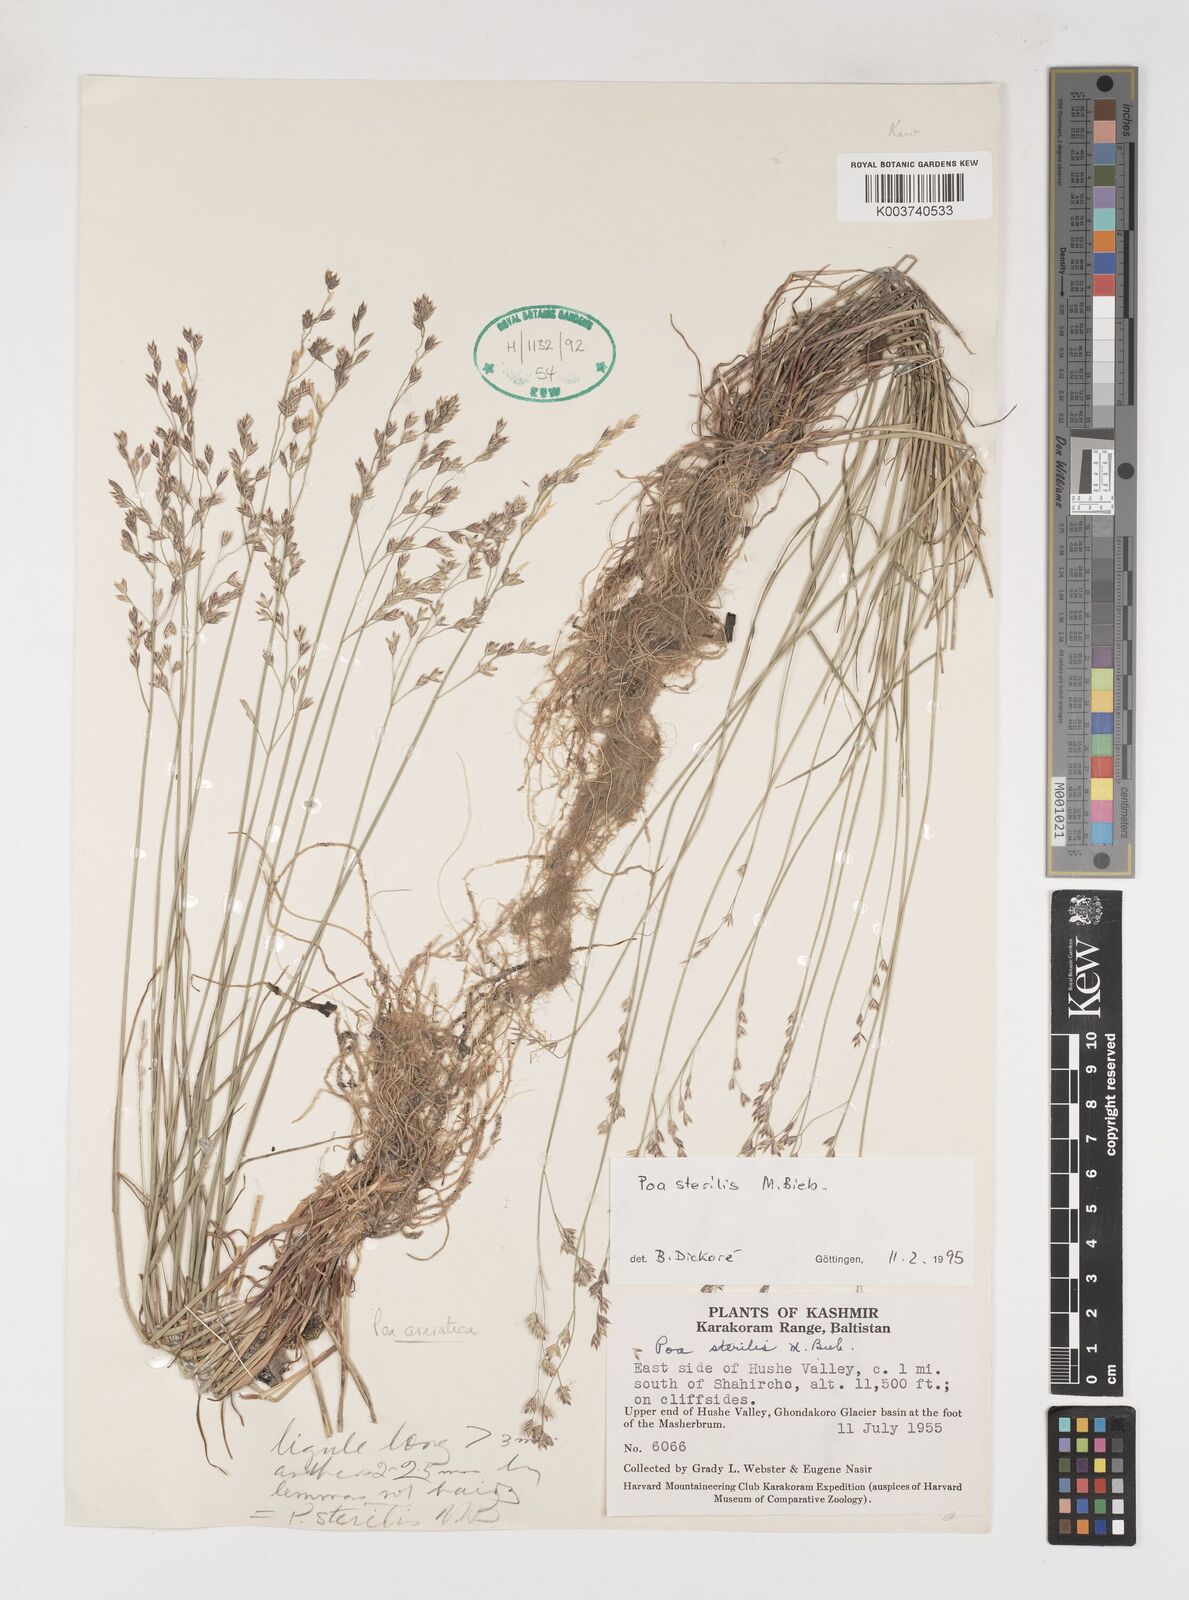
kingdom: Plantae
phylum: Tracheophyta
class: Liliopsida
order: Poales
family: Poaceae
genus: Poa
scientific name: Poa sterilis
